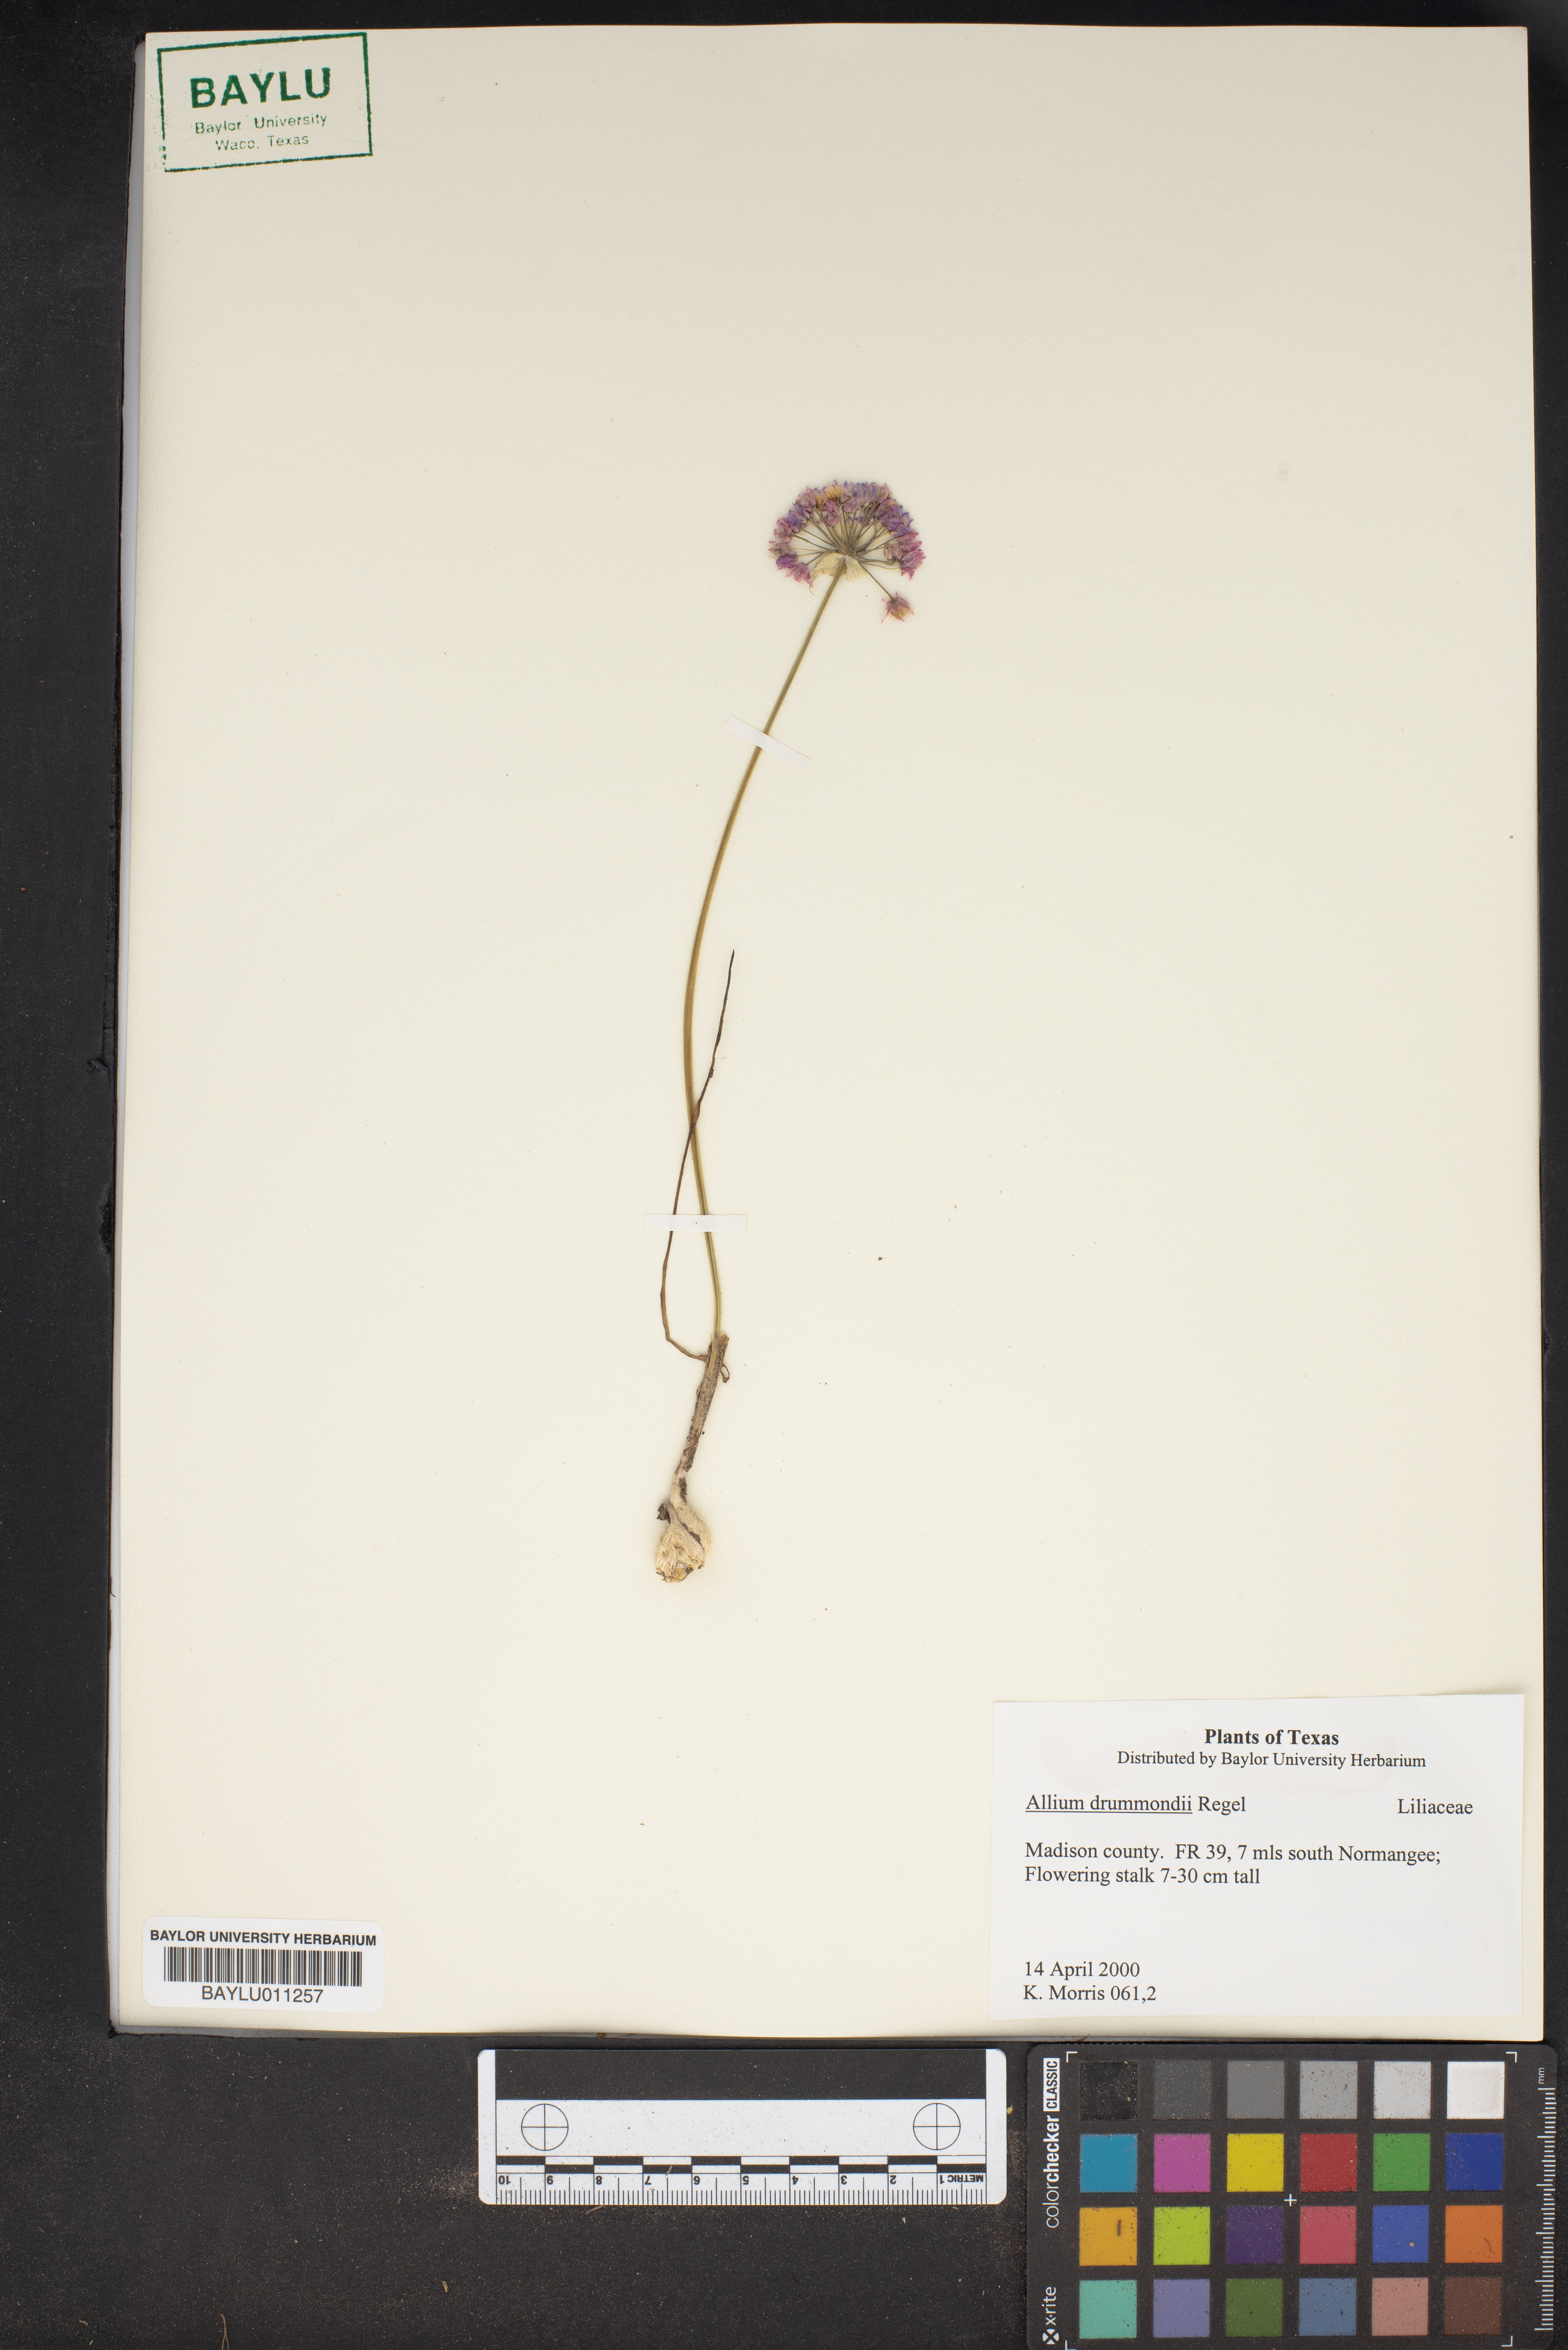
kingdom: Plantae
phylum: Tracheophyta
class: Liliopsida
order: Asparagales
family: Amaryllidaceae
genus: Allium
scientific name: Allium drummondii
